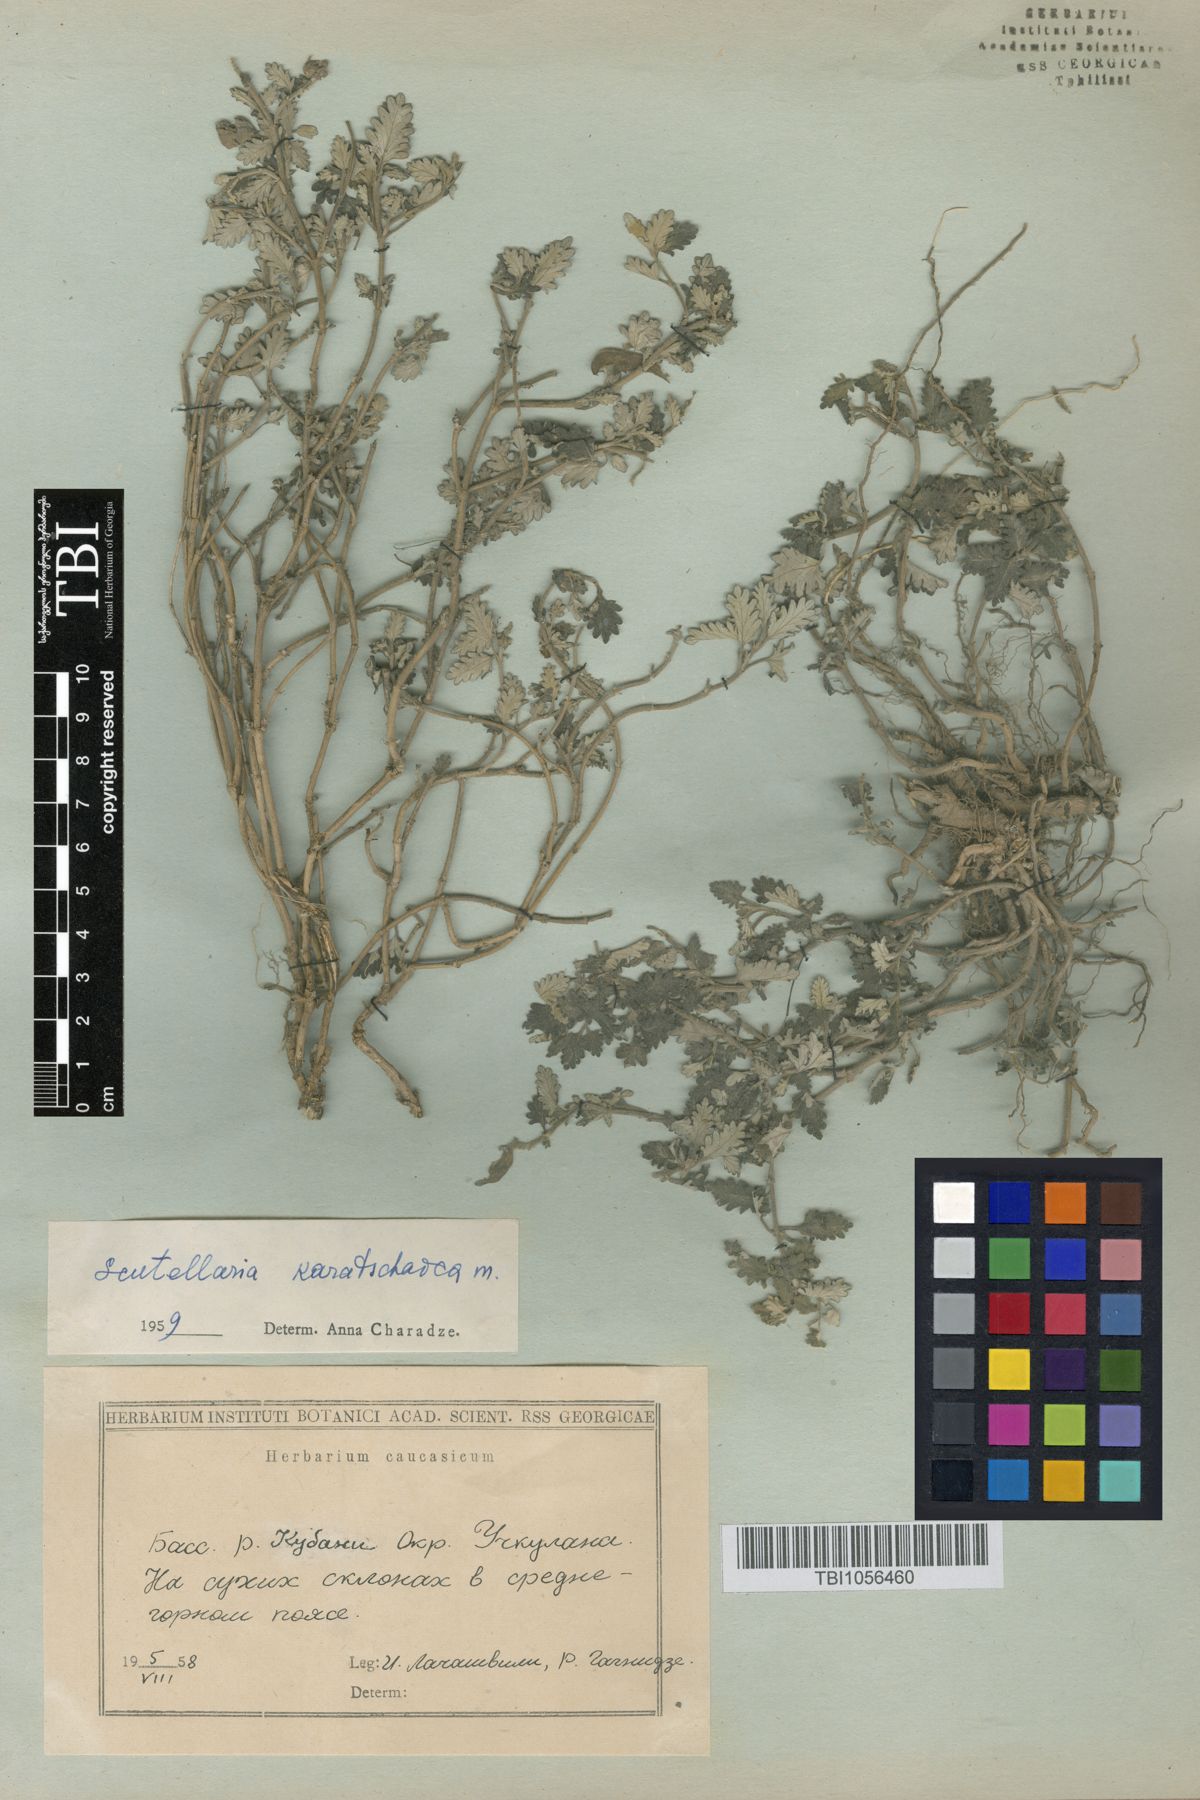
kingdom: Plantae
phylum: Tracheophyta
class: Magnoliopsida
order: Lamiales
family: Lamiaceae
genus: Scutellaria
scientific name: Scutellaria orientalis
